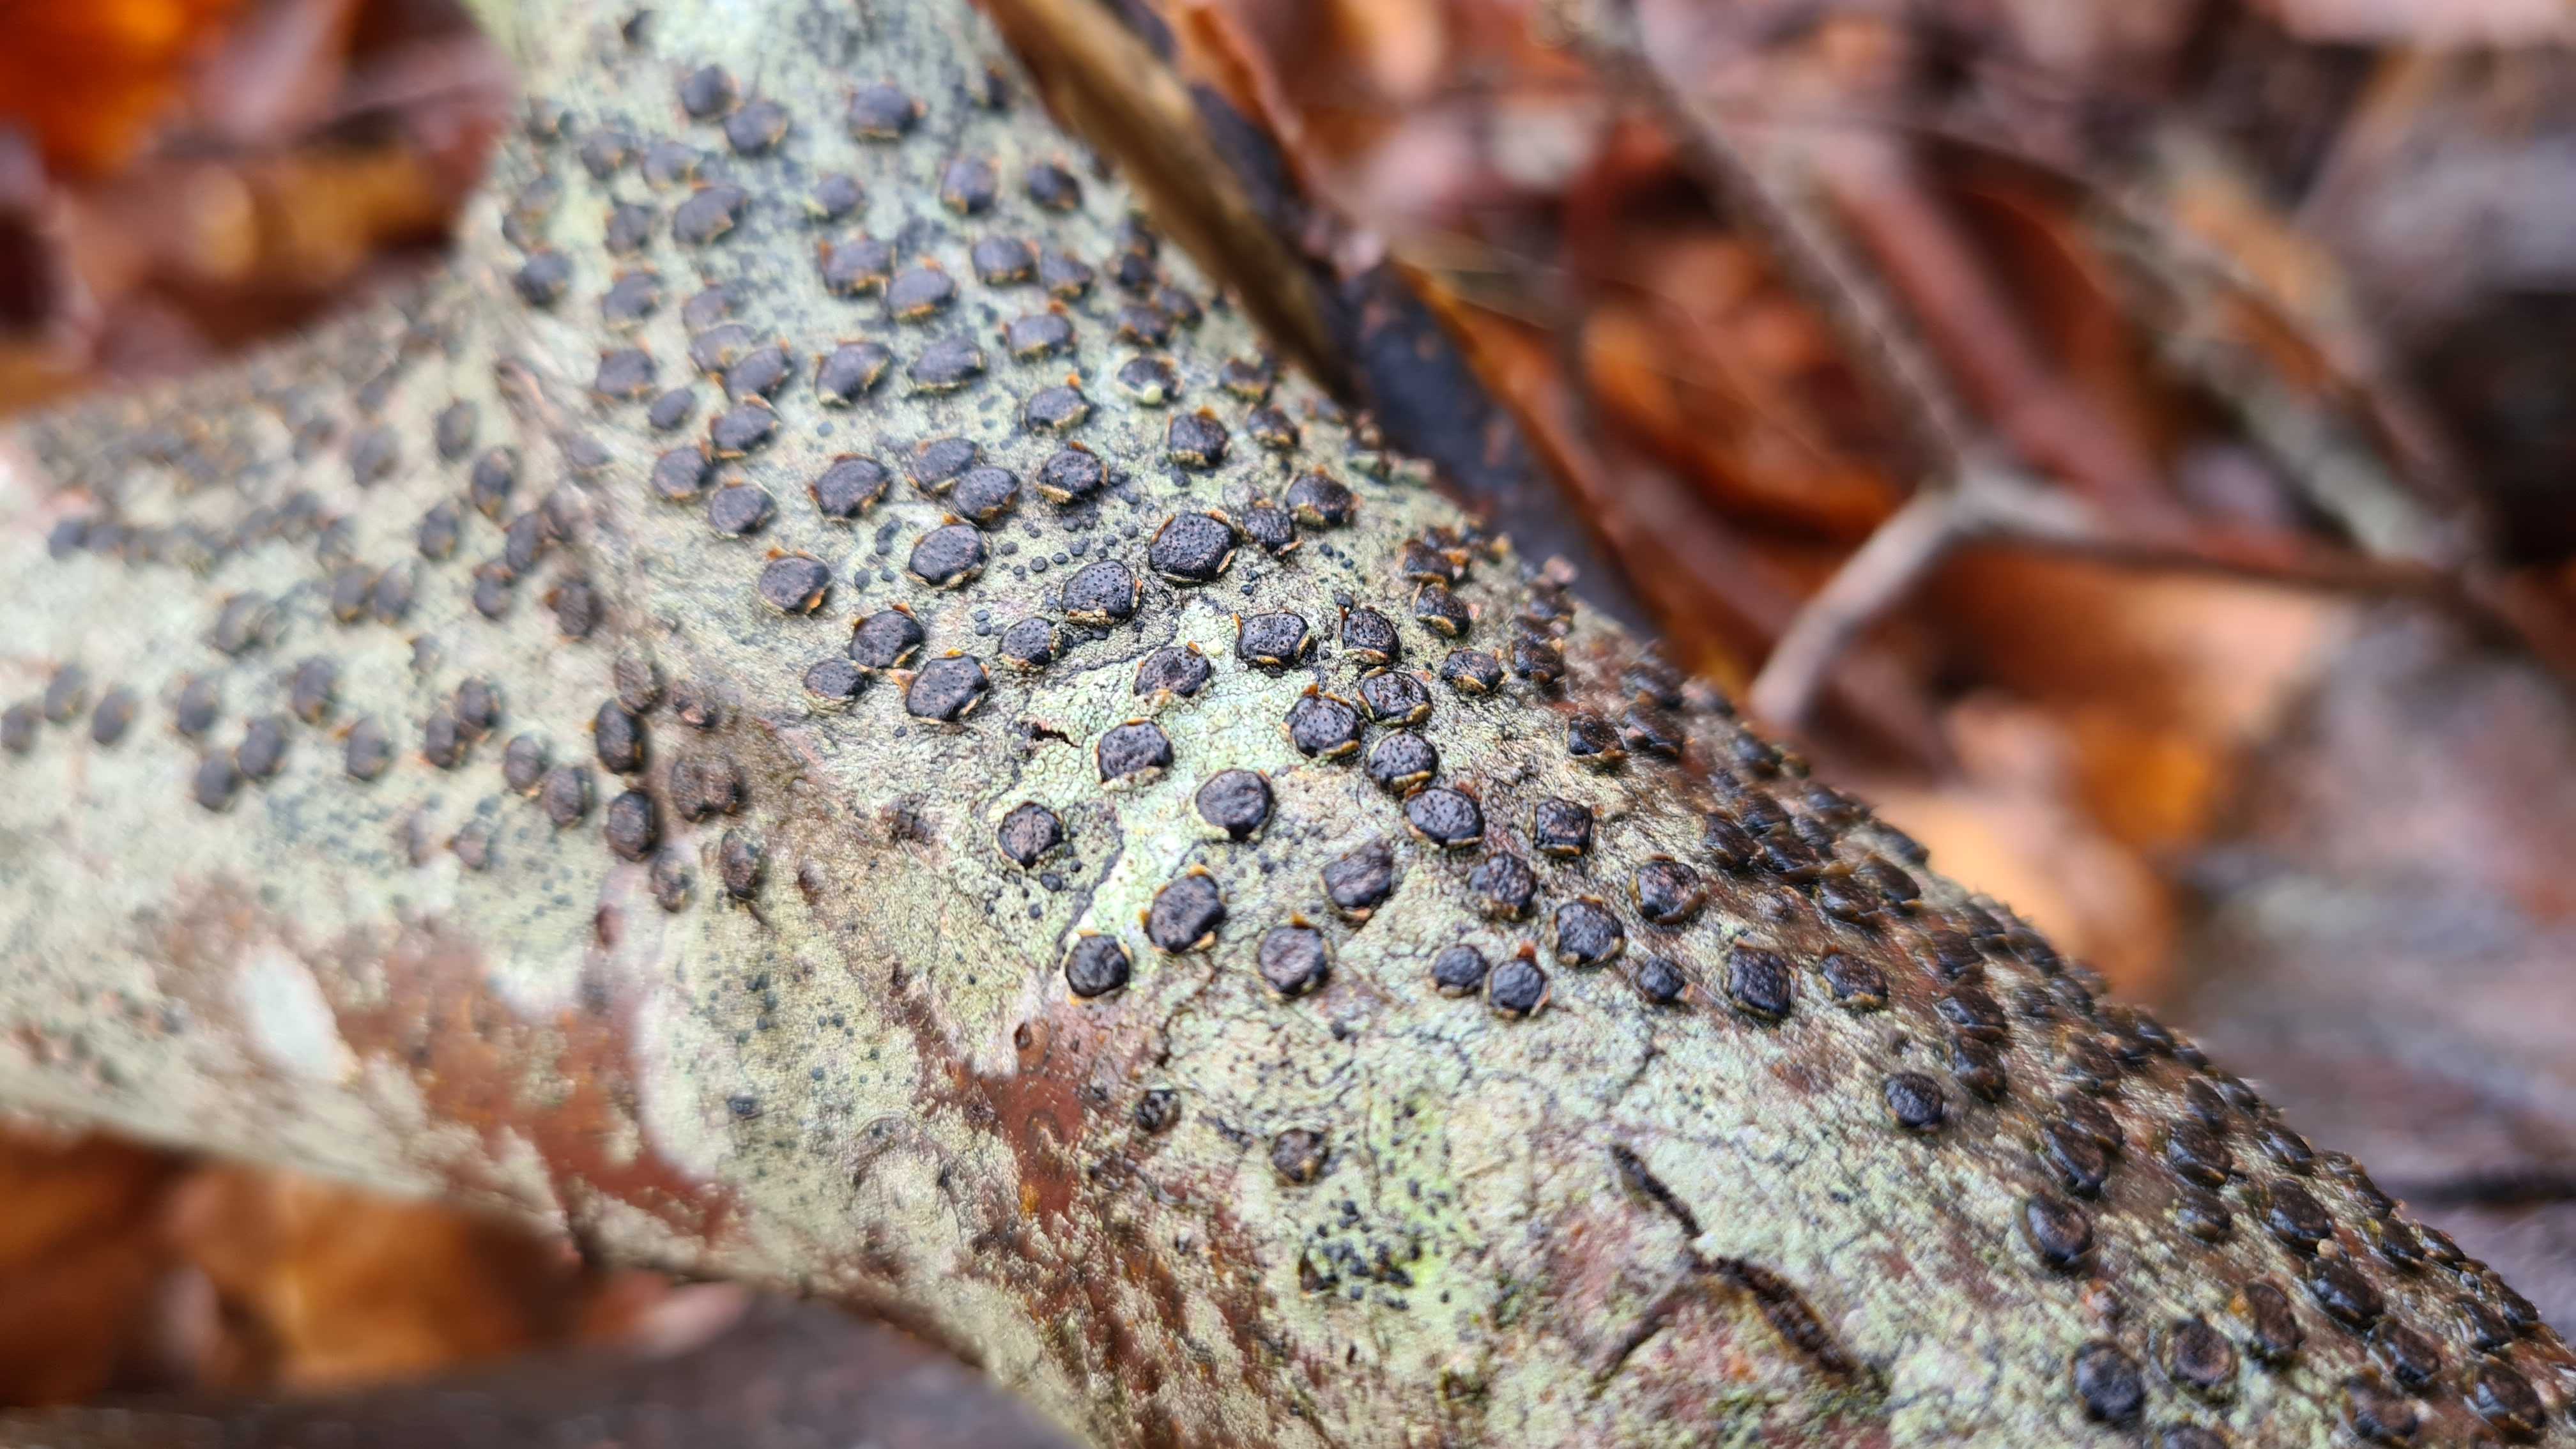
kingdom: Fungi
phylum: Ascomycota
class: Sordariomycetes
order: Xylariales
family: Diatrypaceae
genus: Diatrype
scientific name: Diatrype disciformis
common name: kant-kulskorpe
